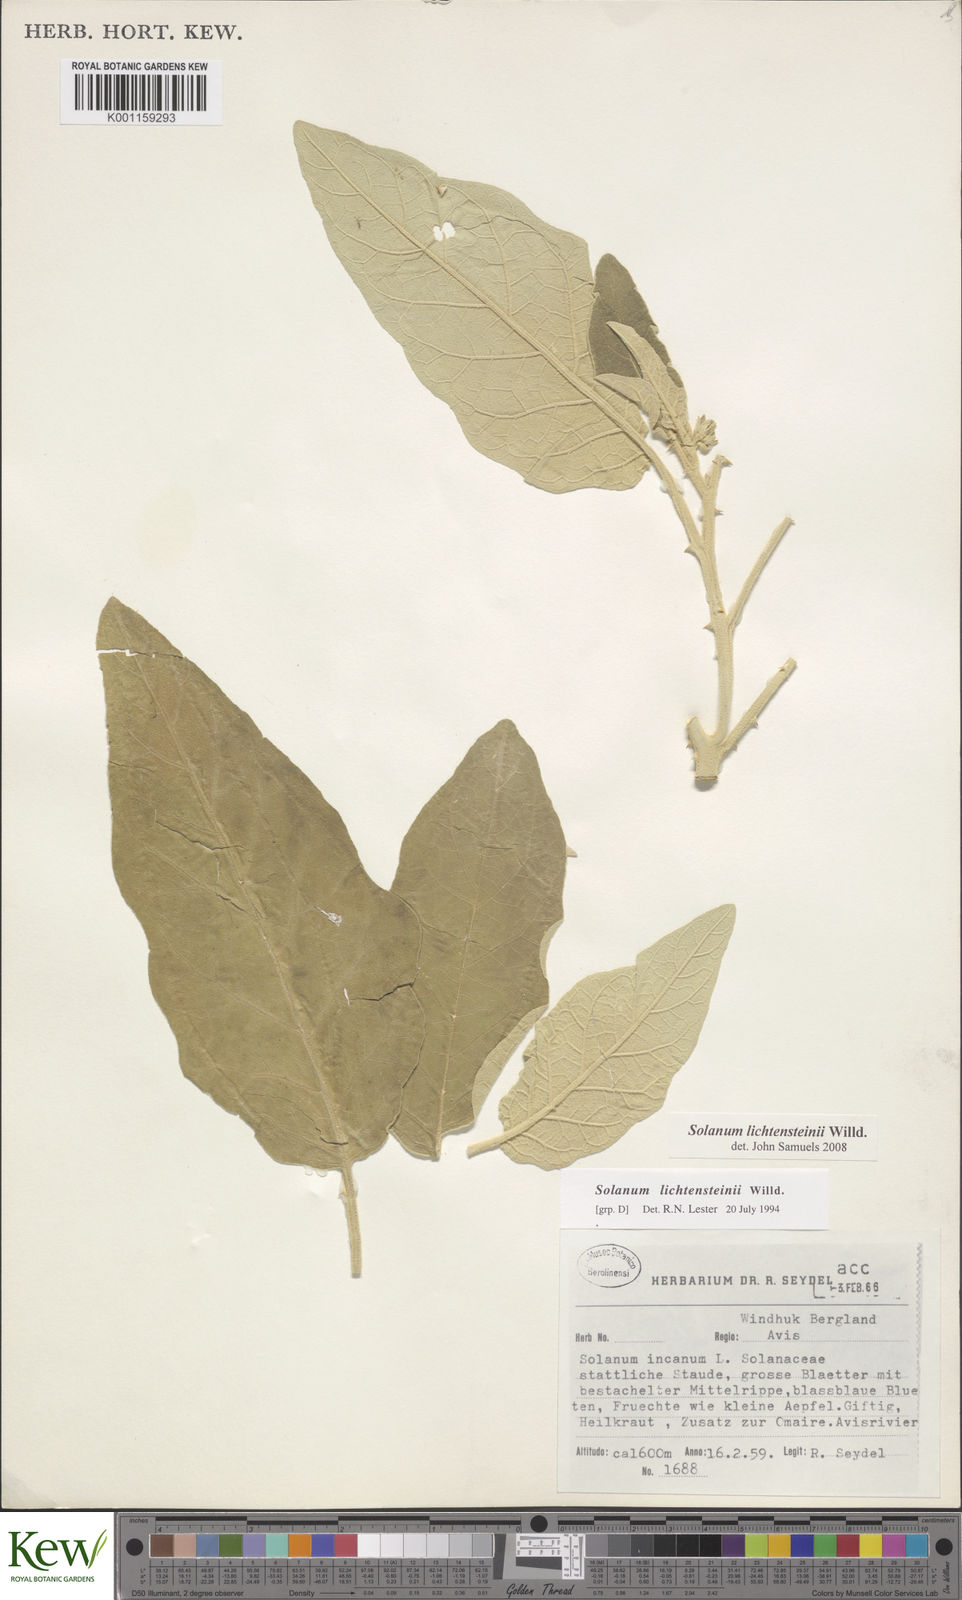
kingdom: Plantae
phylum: Tracheophyta
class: Magnoliopsida
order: Solanales
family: Solanaceae
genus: Solanum
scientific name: Solanum lichtensteinii
